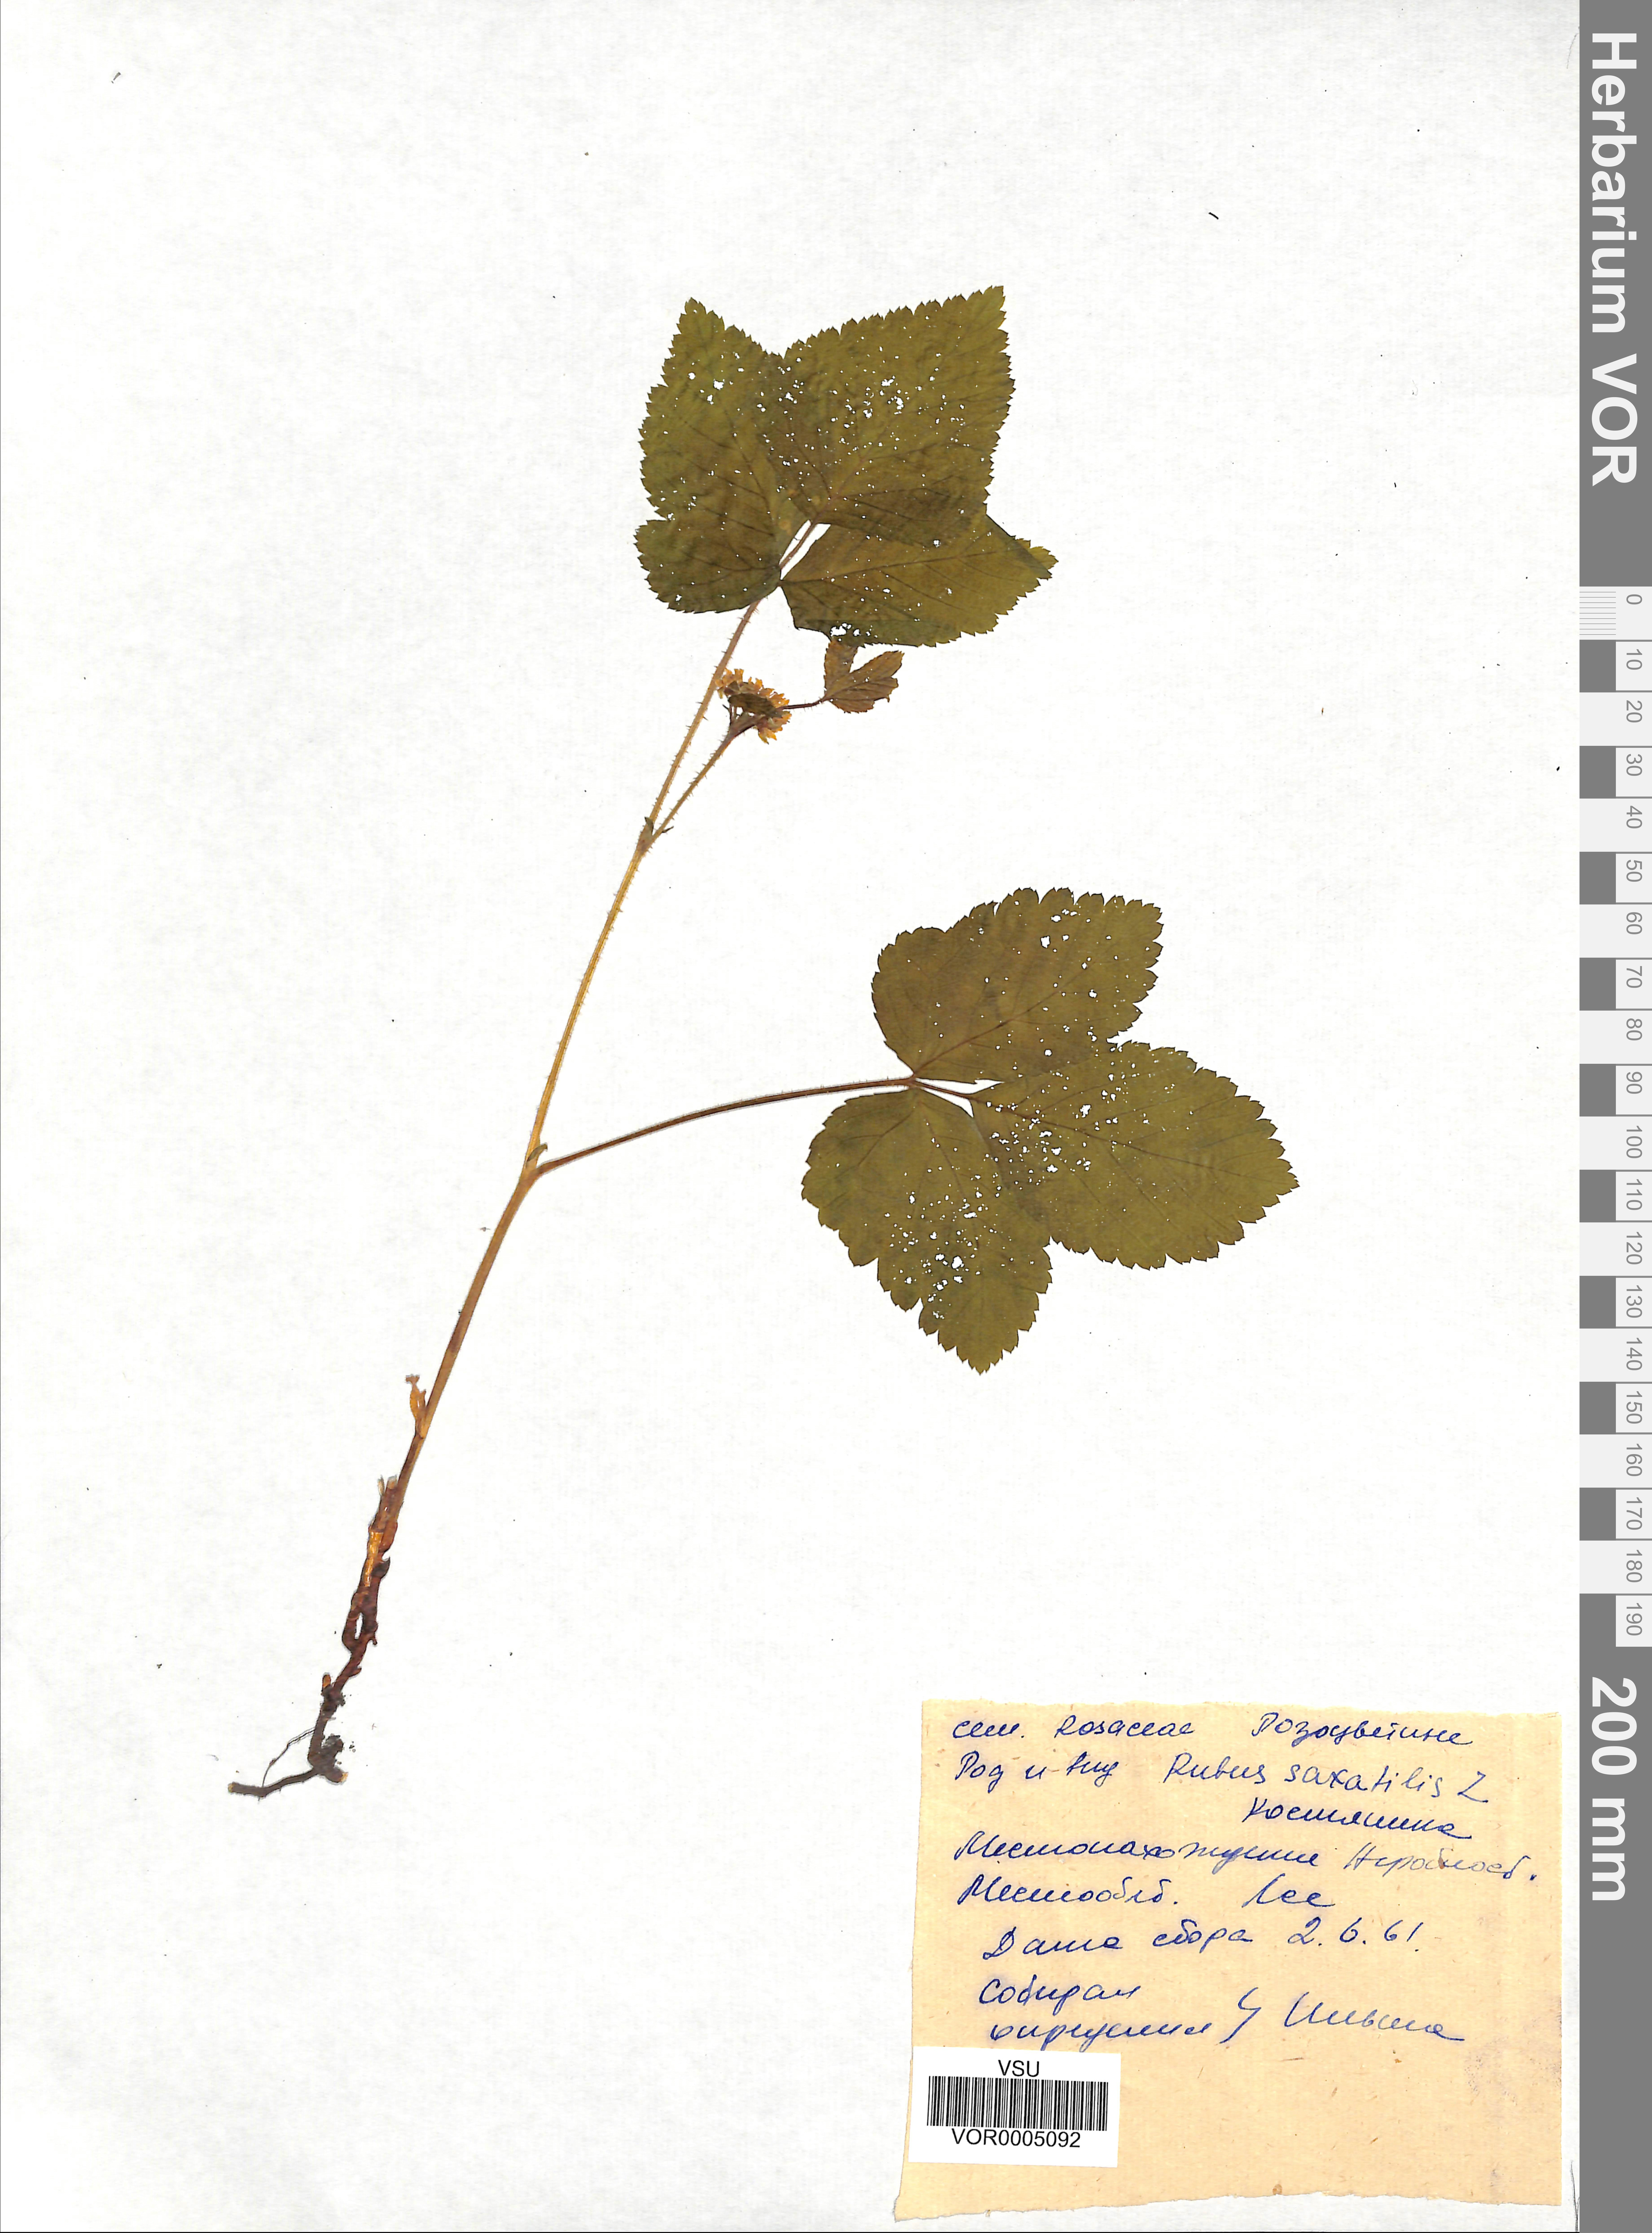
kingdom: Plantae
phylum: Tracheophyta
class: Magnoliopsida
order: Rosales
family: Rosaceae
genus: Rubus
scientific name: Rubus saxatilis
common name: Stone bramble
